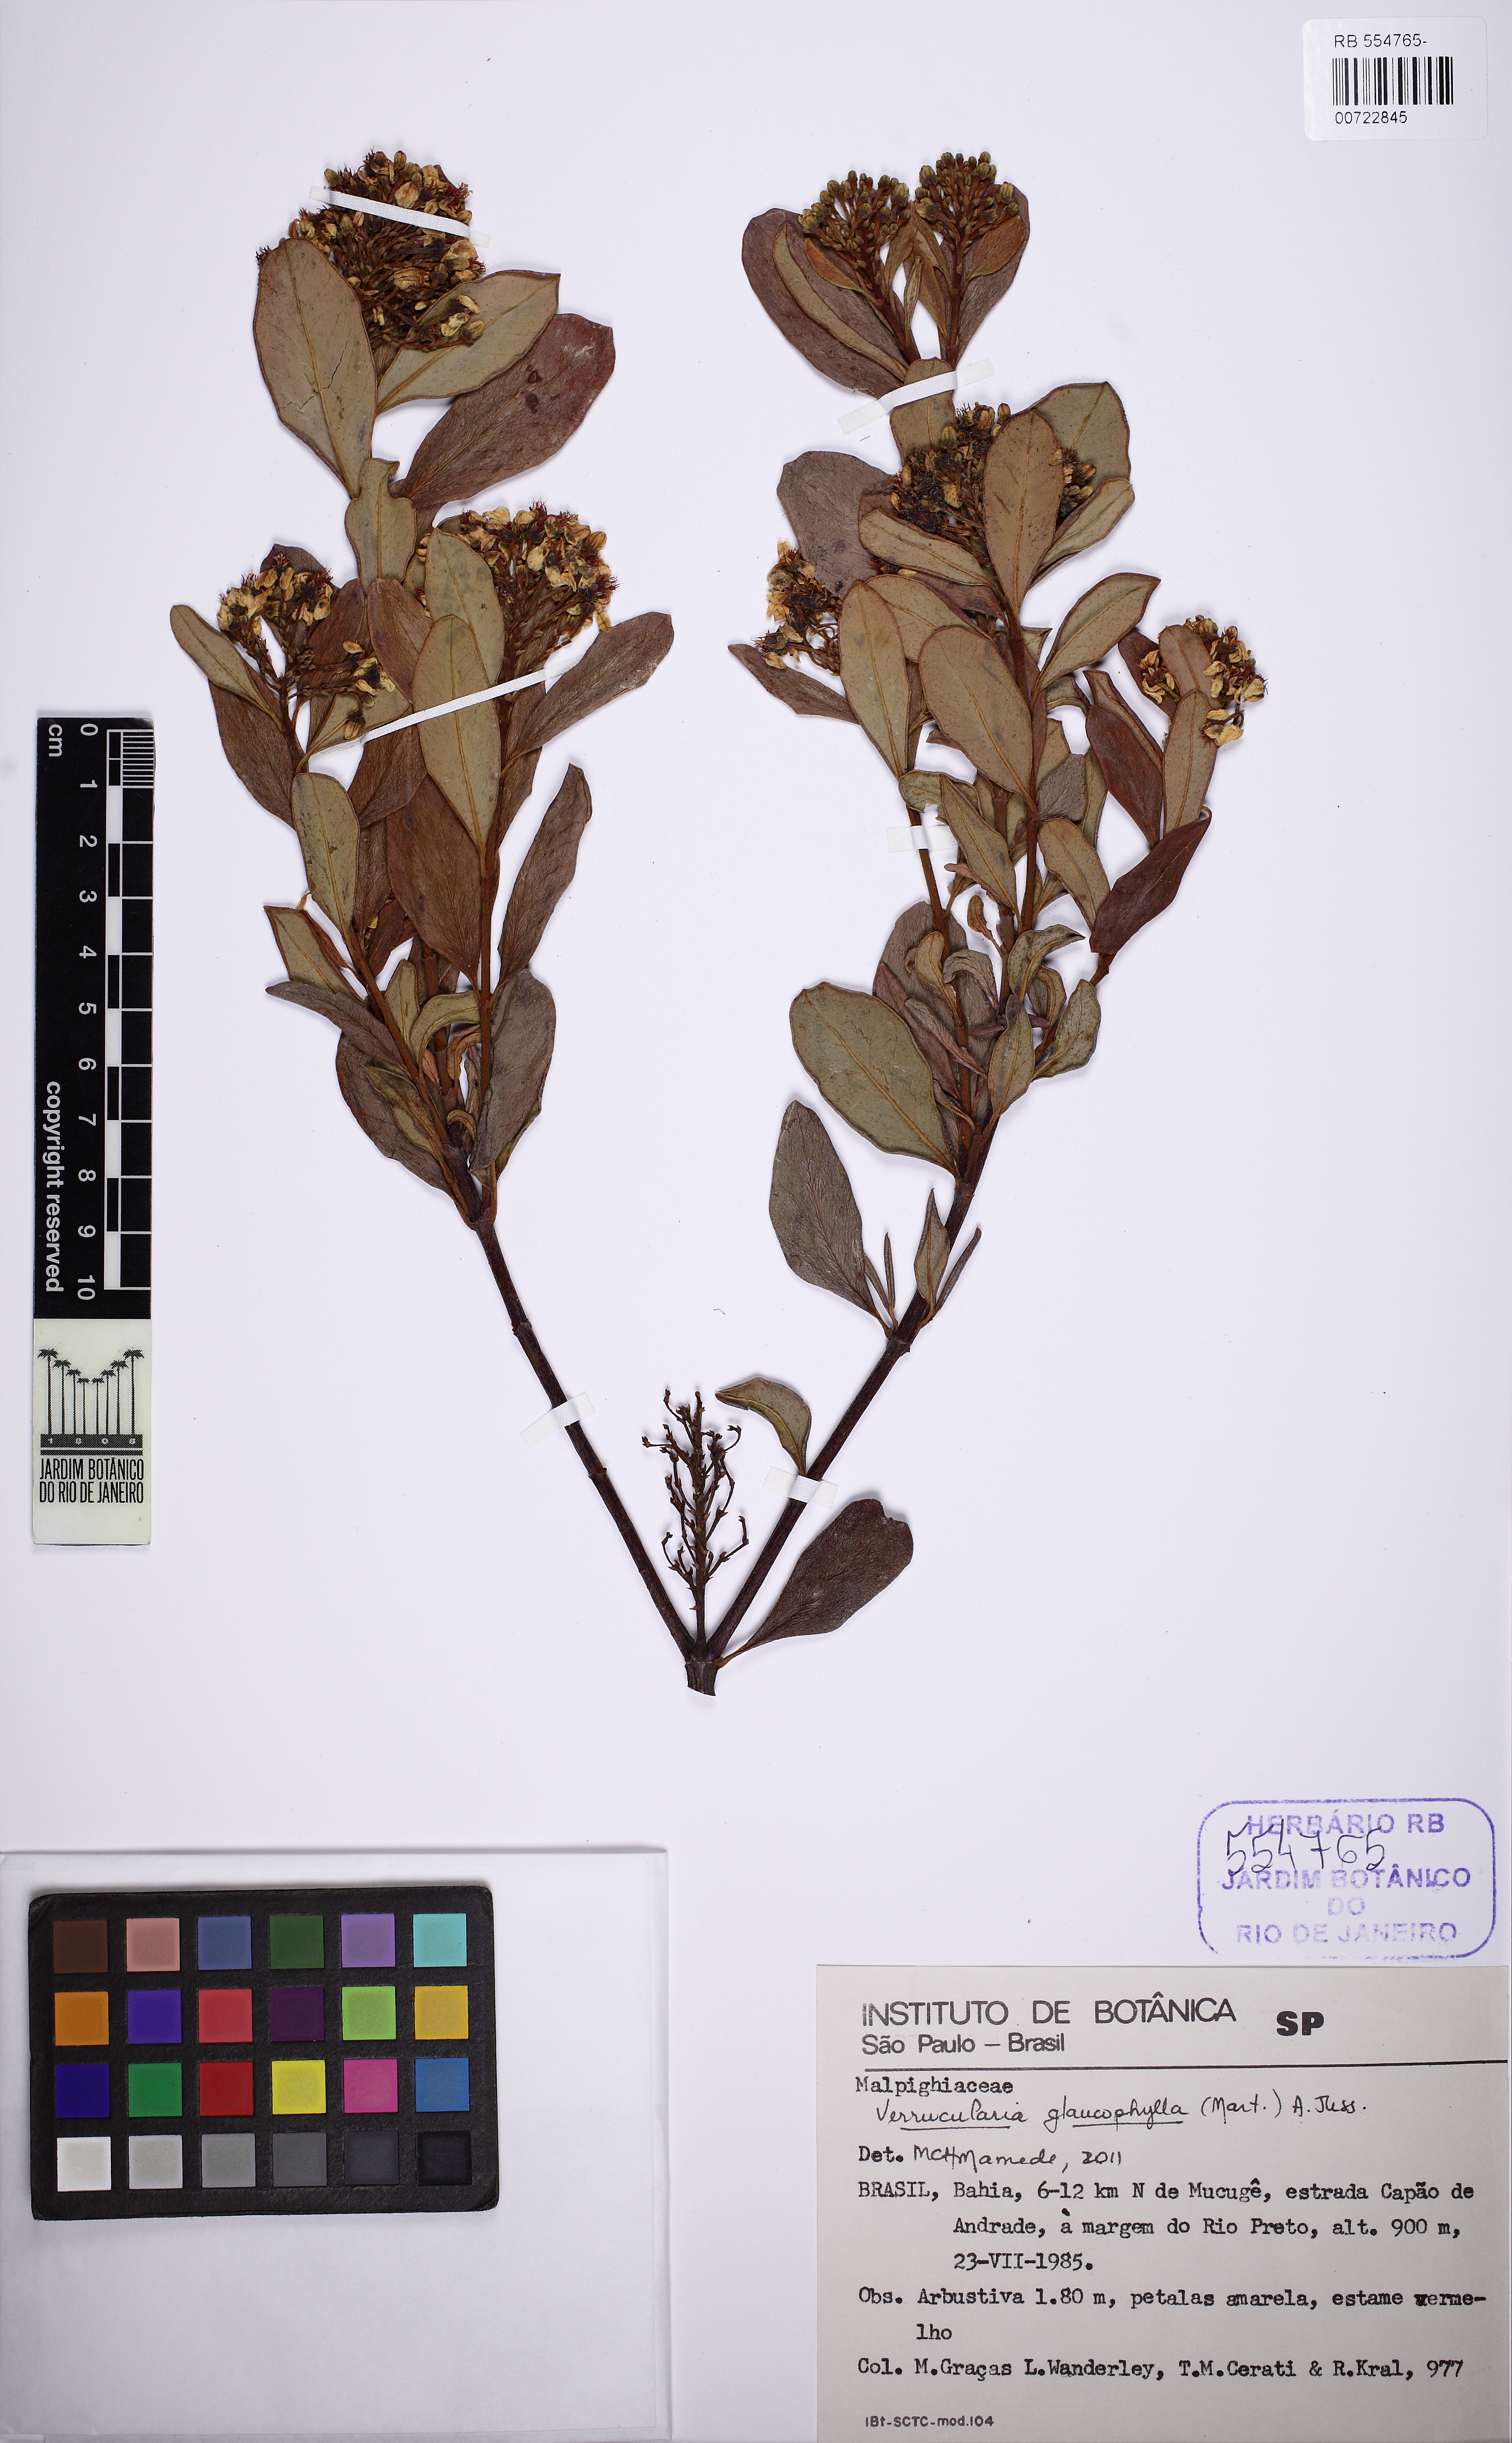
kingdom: Plantae
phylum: Tracheophyta
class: Magnoliopsida
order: Malpighiales
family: Malpighiaceae
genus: Verrucularina
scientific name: Verrucularina glaucophylla
